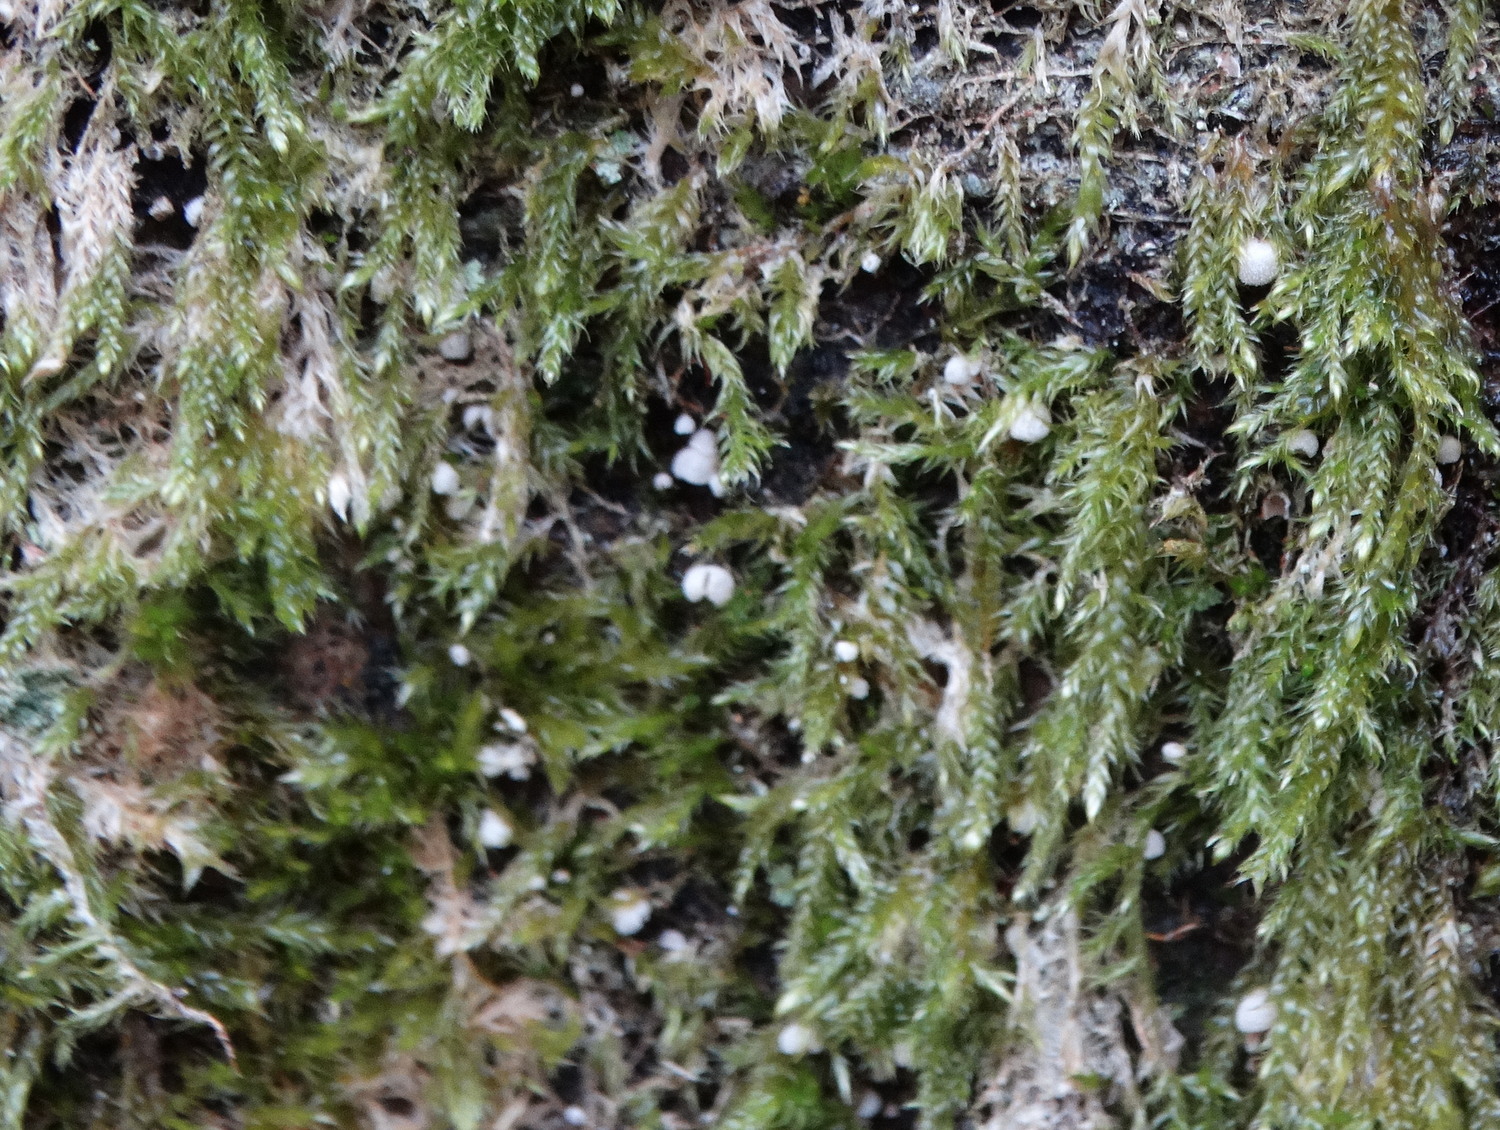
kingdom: Fungi
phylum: Basidiomycota
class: Agaricomycetes
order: Agaricales
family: Chromocyphellaceae
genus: Chromocyphella
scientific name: Chromocyphella muscicola
